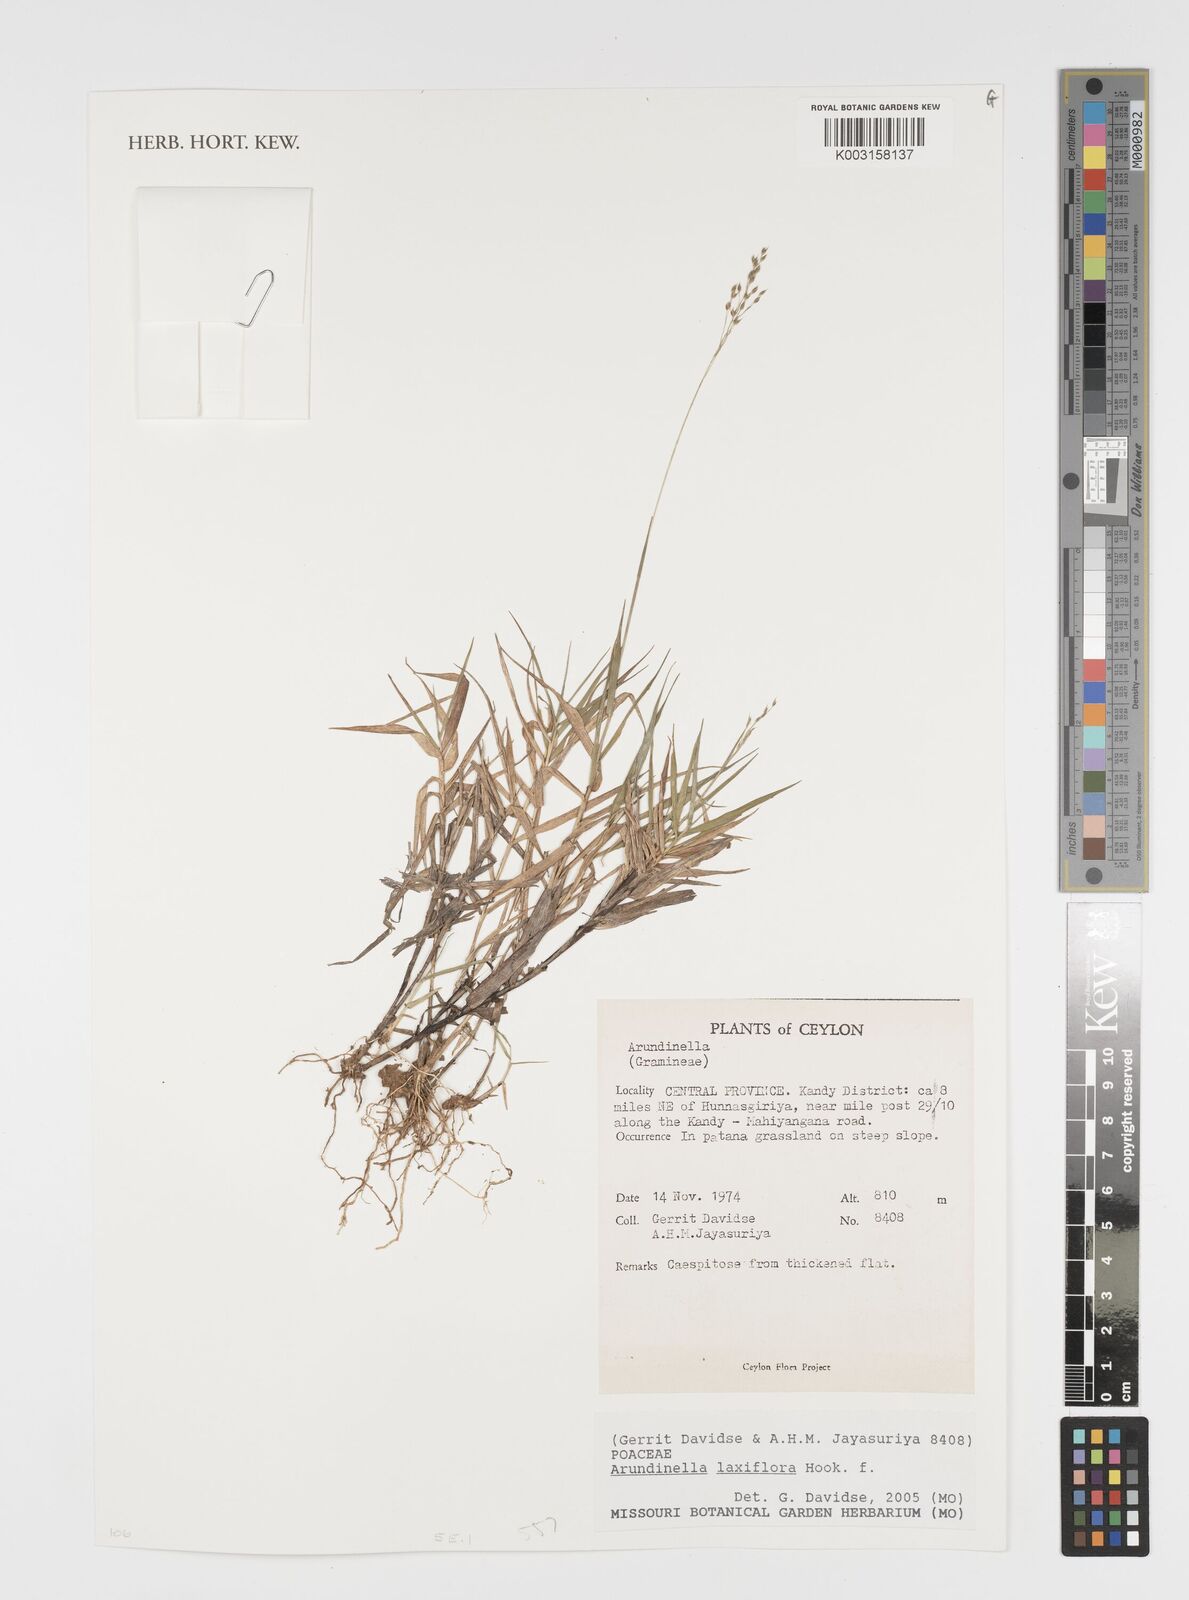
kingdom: Plantae
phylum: Tracheophyta
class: Liliopsida
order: Poales
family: Poaceae
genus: Arundinella
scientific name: Arundinella laxiflora
